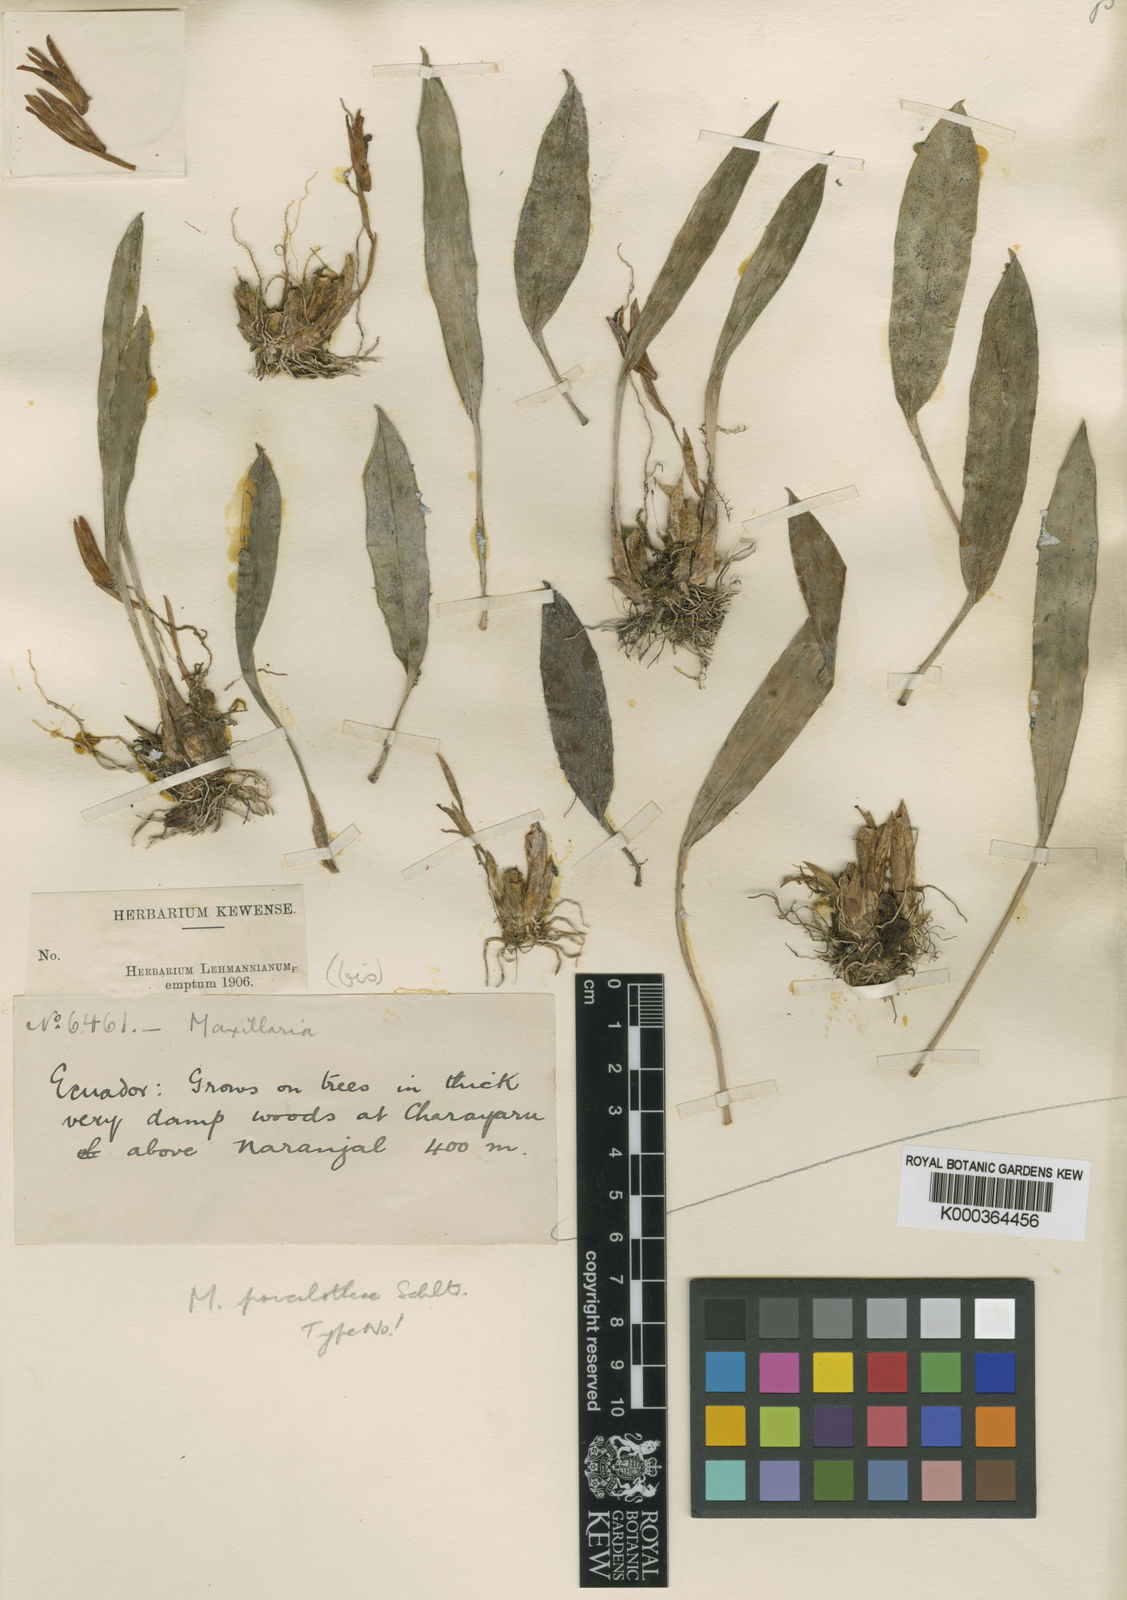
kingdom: Plantae
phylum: Tracheophyta
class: Liliopsida
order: Asparagales
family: Orchidaceae
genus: Maxillaria
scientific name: Maxillaria poicilothece
